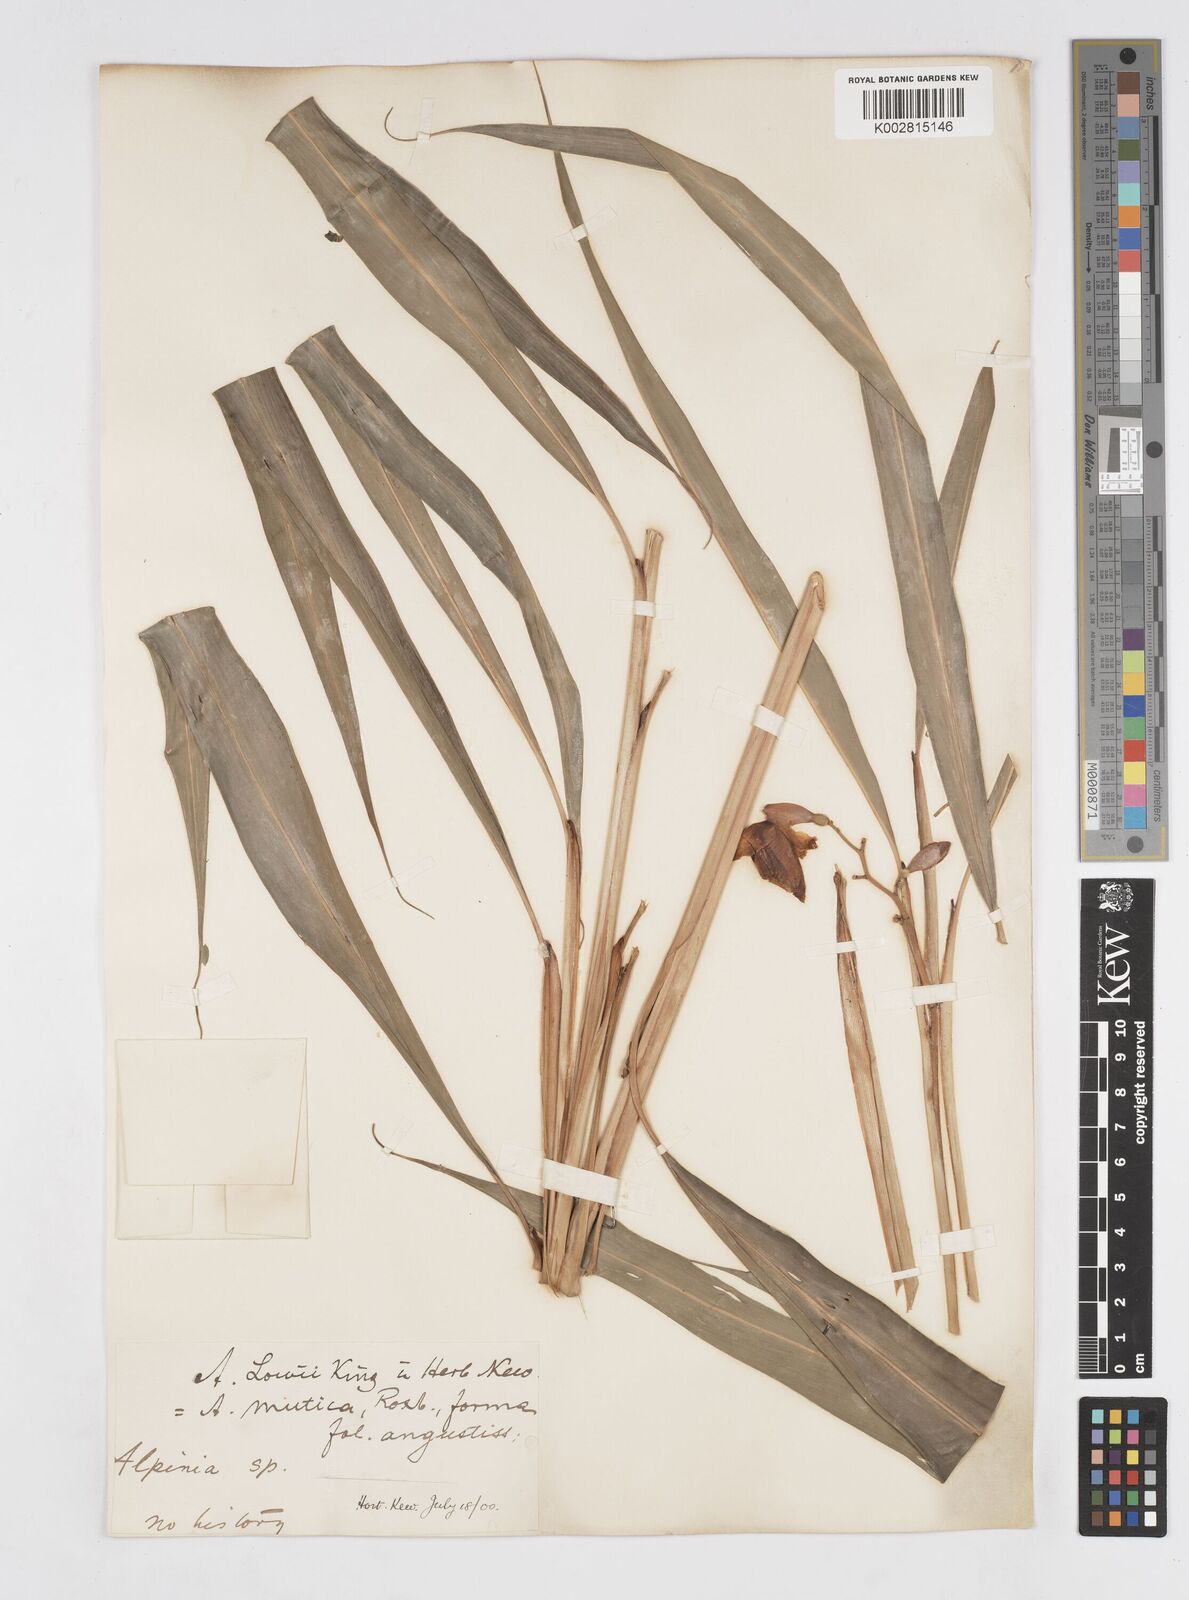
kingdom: Plantae
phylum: Tracheophyta
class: Liliopsida
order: Zingiberales
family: Zingiberaceae
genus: Alpinia
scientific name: Alpinia mutica
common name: Small shell ginger
